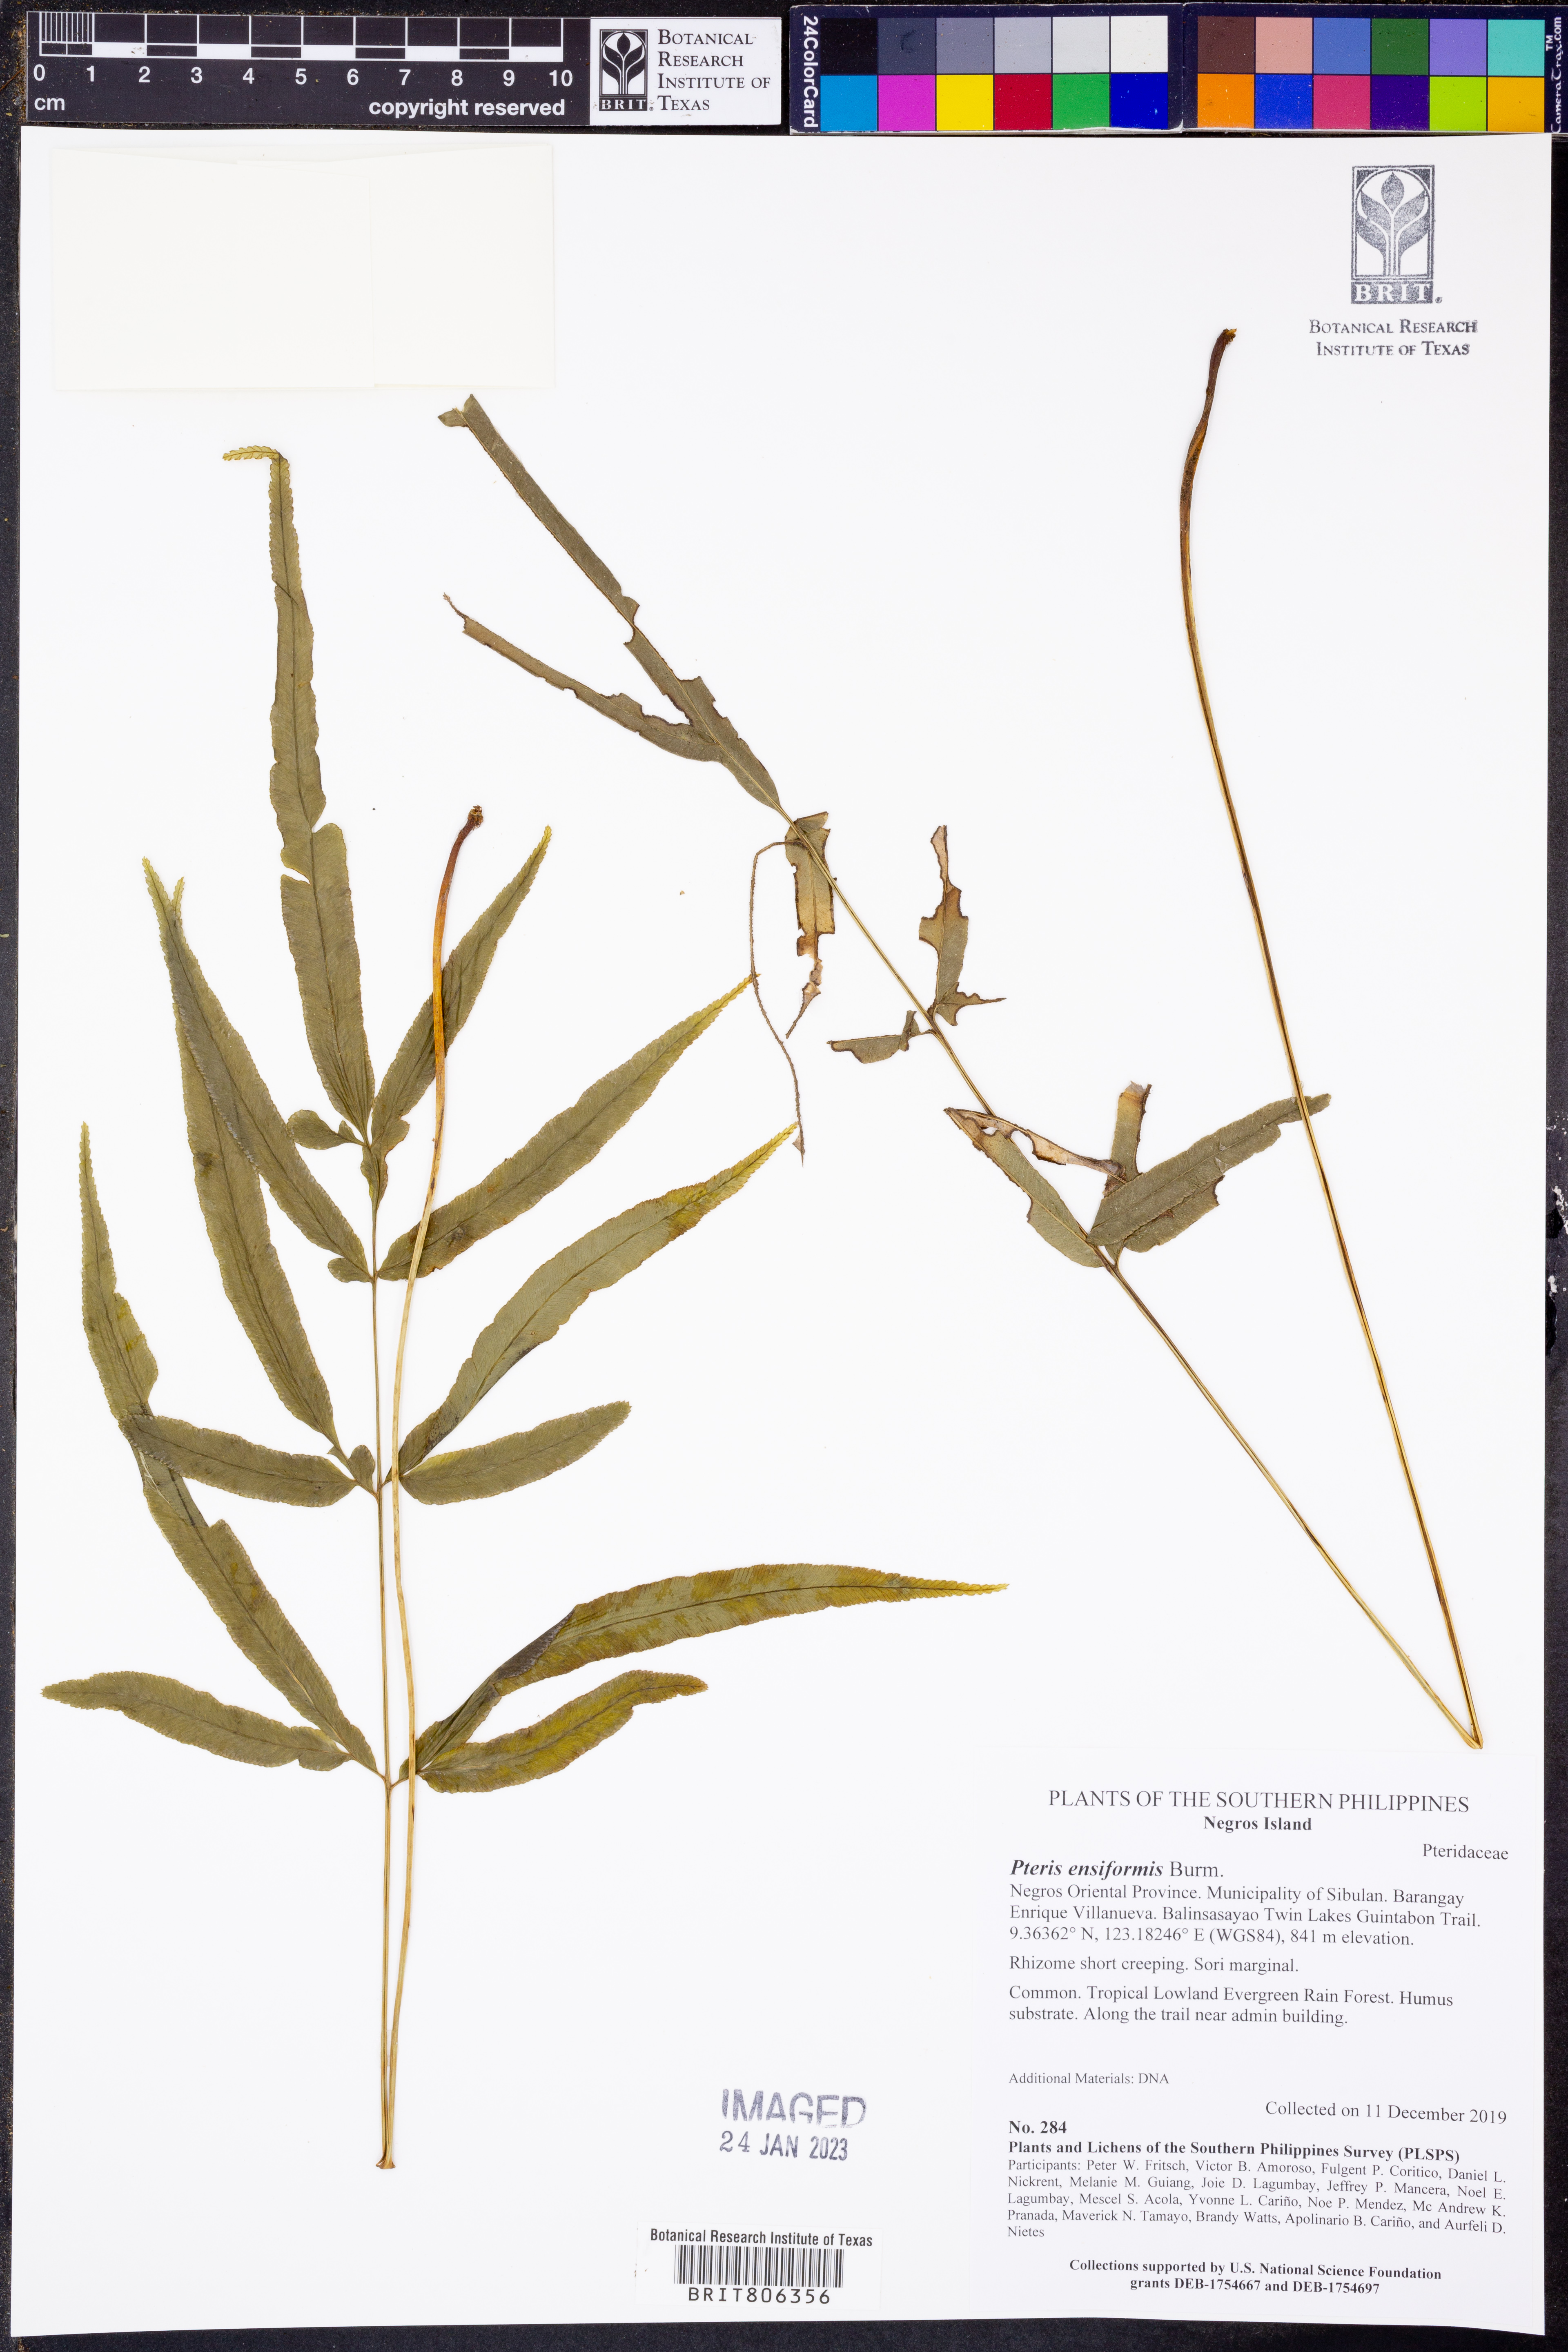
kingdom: Plantae
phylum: Tracheophyta
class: Polypodiopsida
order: Polypodiales
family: Pteridaceae
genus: Pteris
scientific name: Pteris ensiformis
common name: Sword brake
